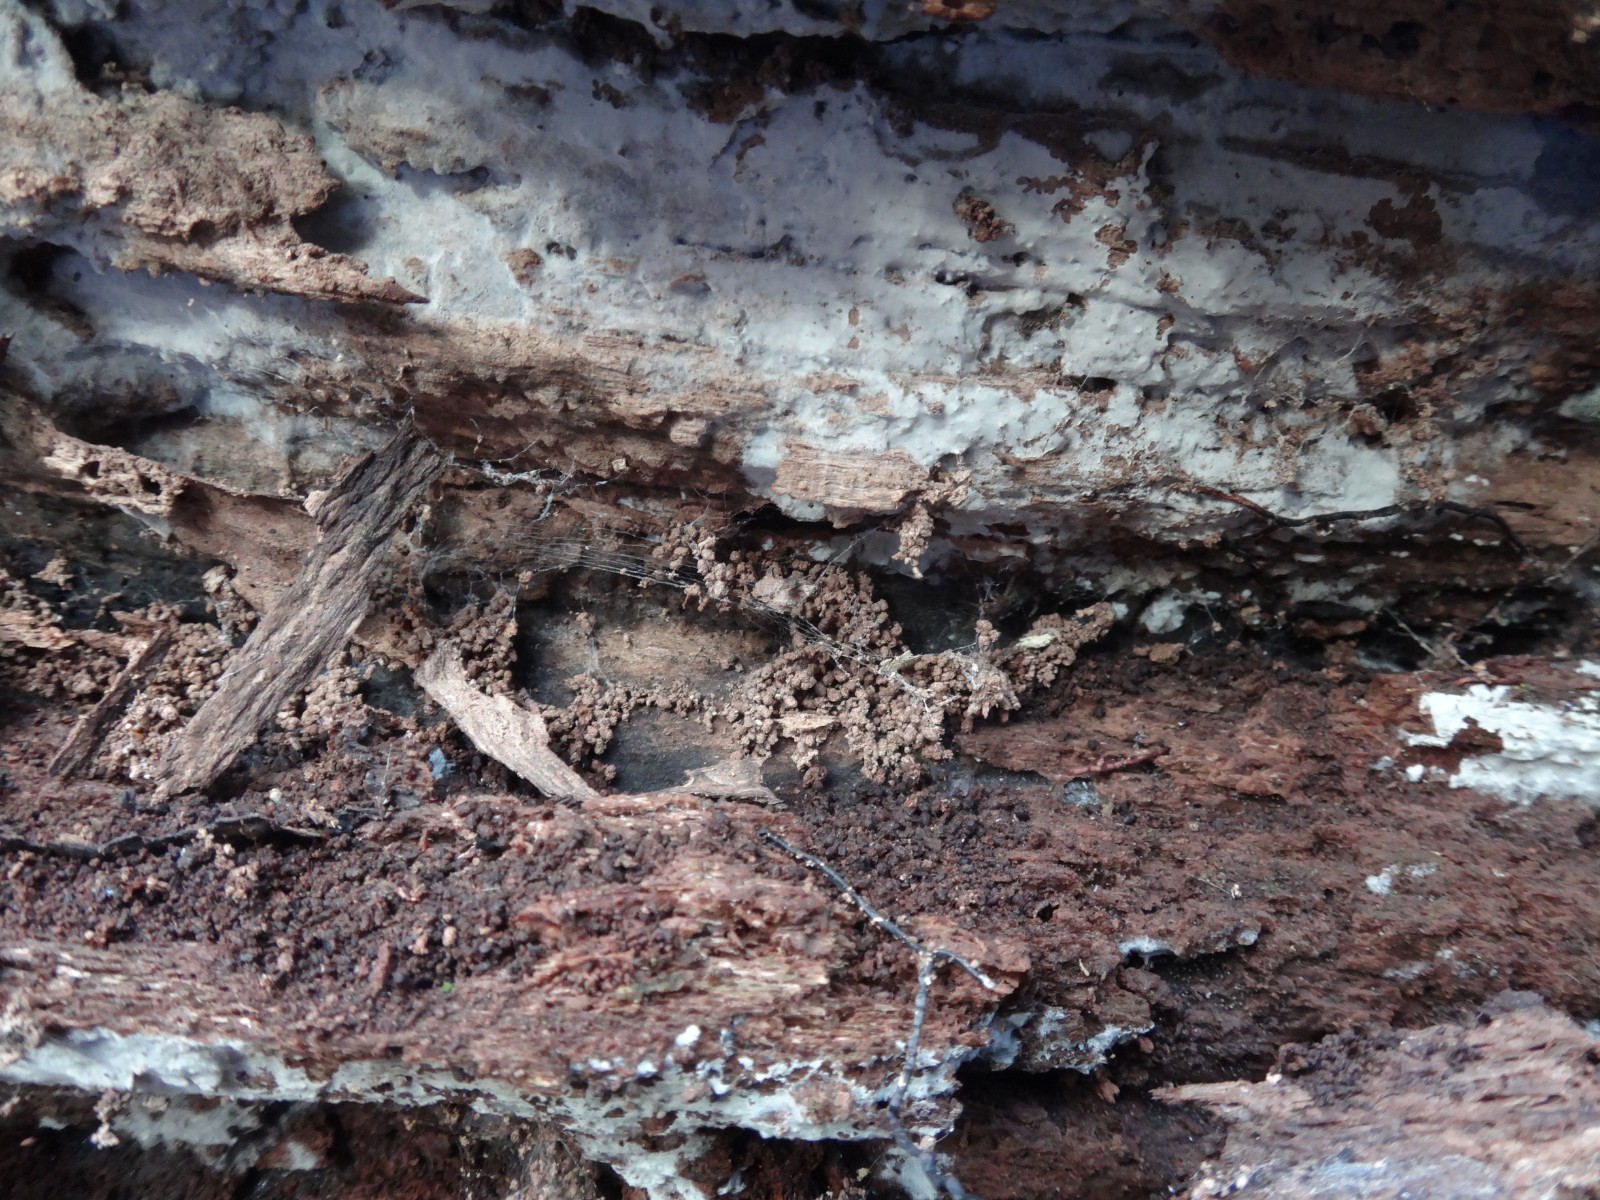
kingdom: Fungi
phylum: Basidiomycota
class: Agaricomycetes
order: Atheliales
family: Atheliaceae
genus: Athelia
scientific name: Athelia epiphylla
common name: almindelig barkhinde
